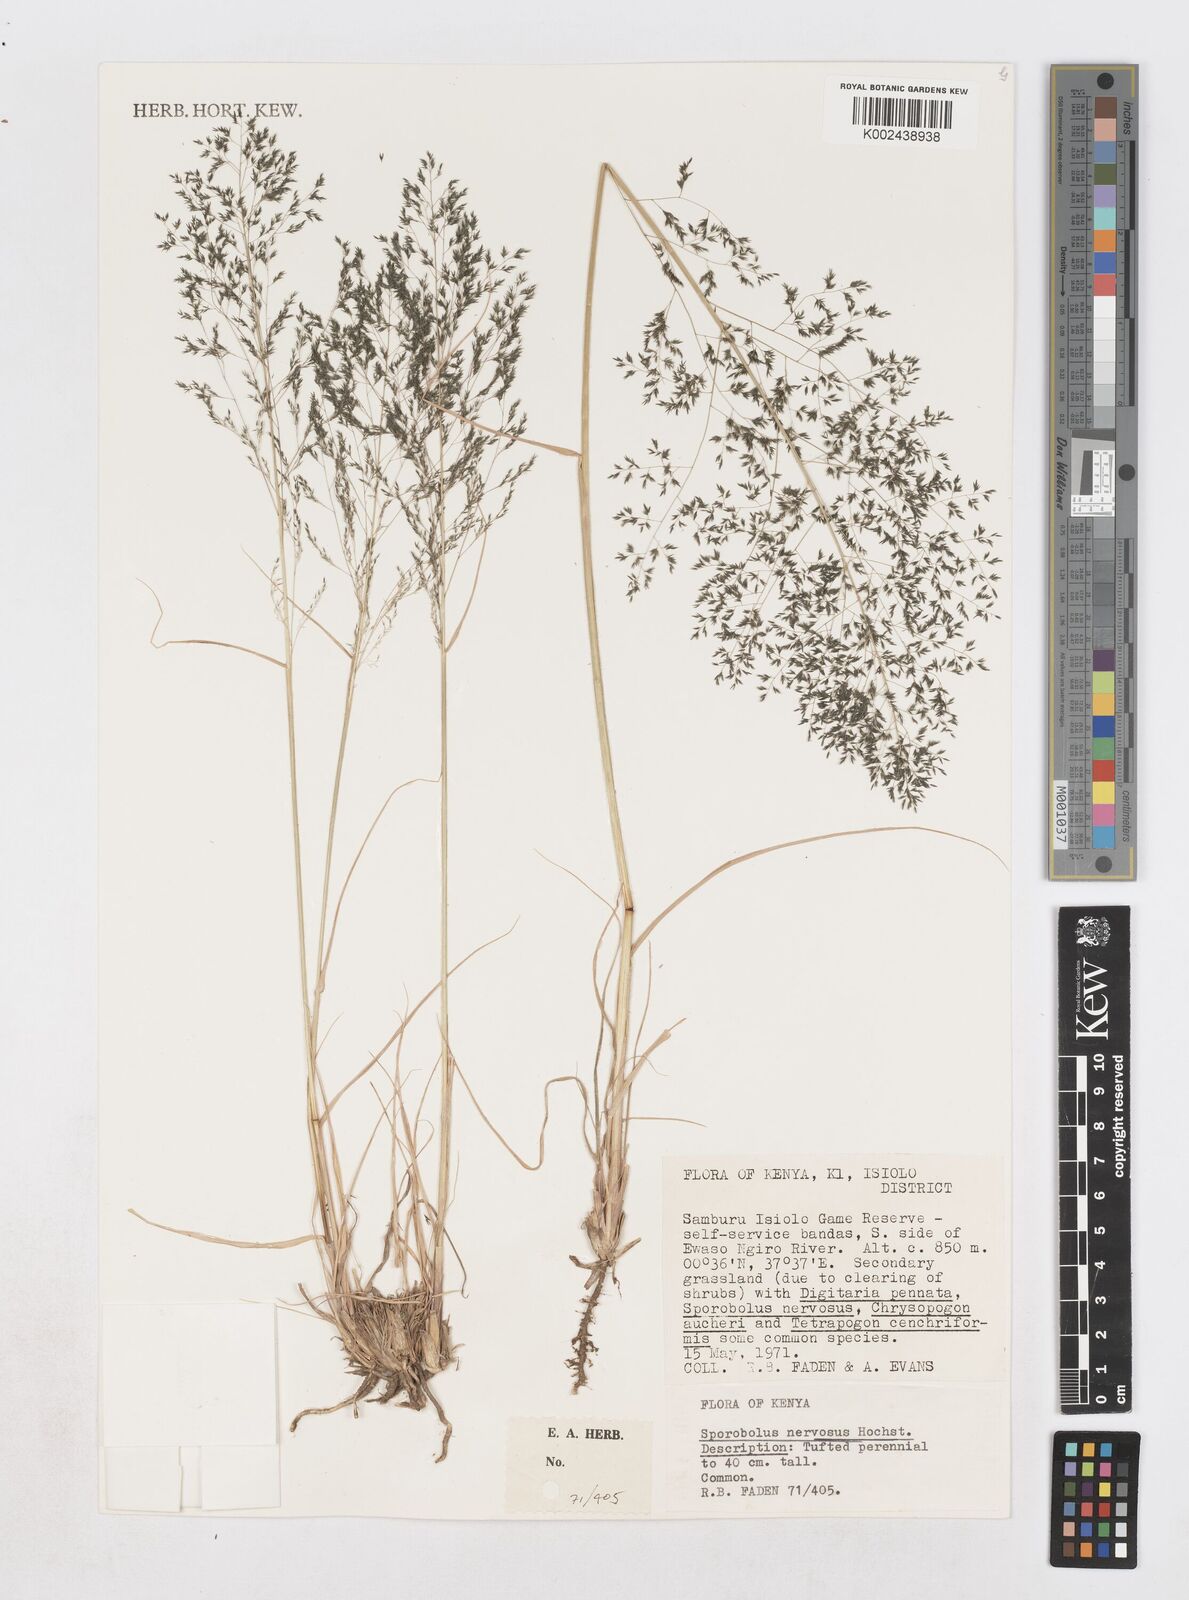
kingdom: Plantae
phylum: Tracheophyta
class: Liliopsida
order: Poales
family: Poaceae
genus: Sporobolus
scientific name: Sporobolus nervosus
